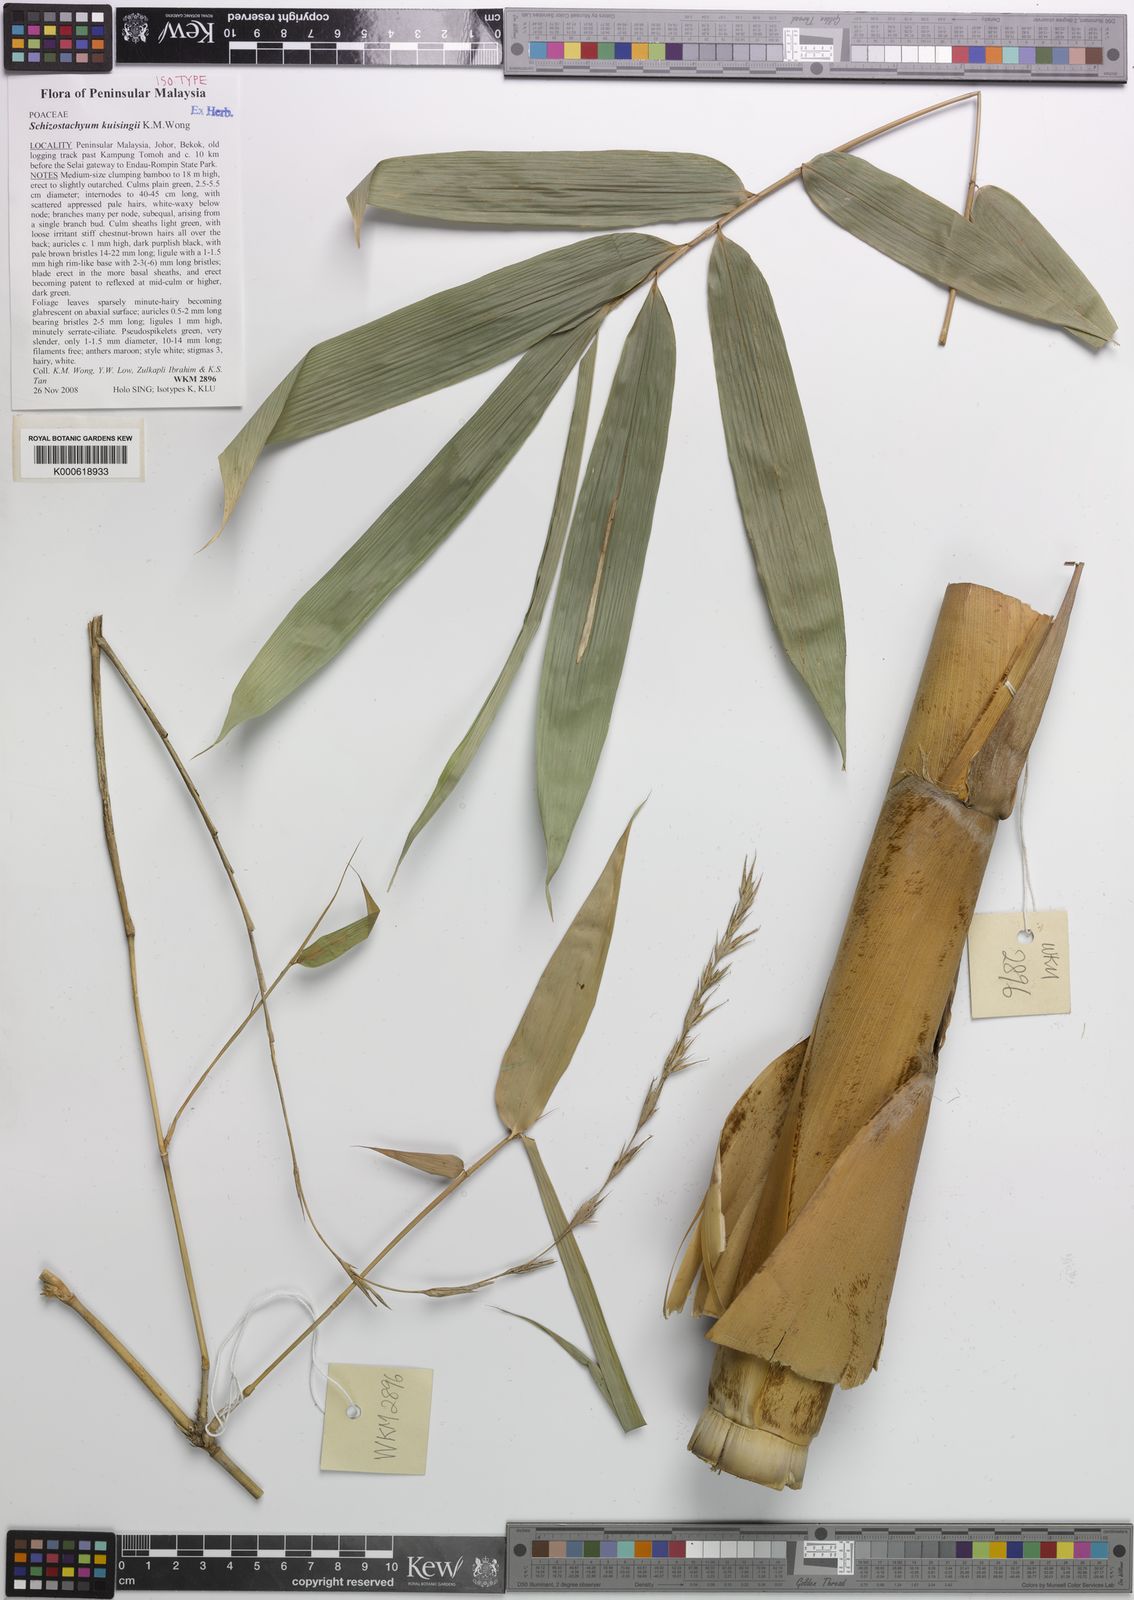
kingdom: Plantae
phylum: Tracheophyta
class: Liliopsida
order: Poales
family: Poaceae
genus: Schizostachyum
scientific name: Schizostachyum kuisingii
